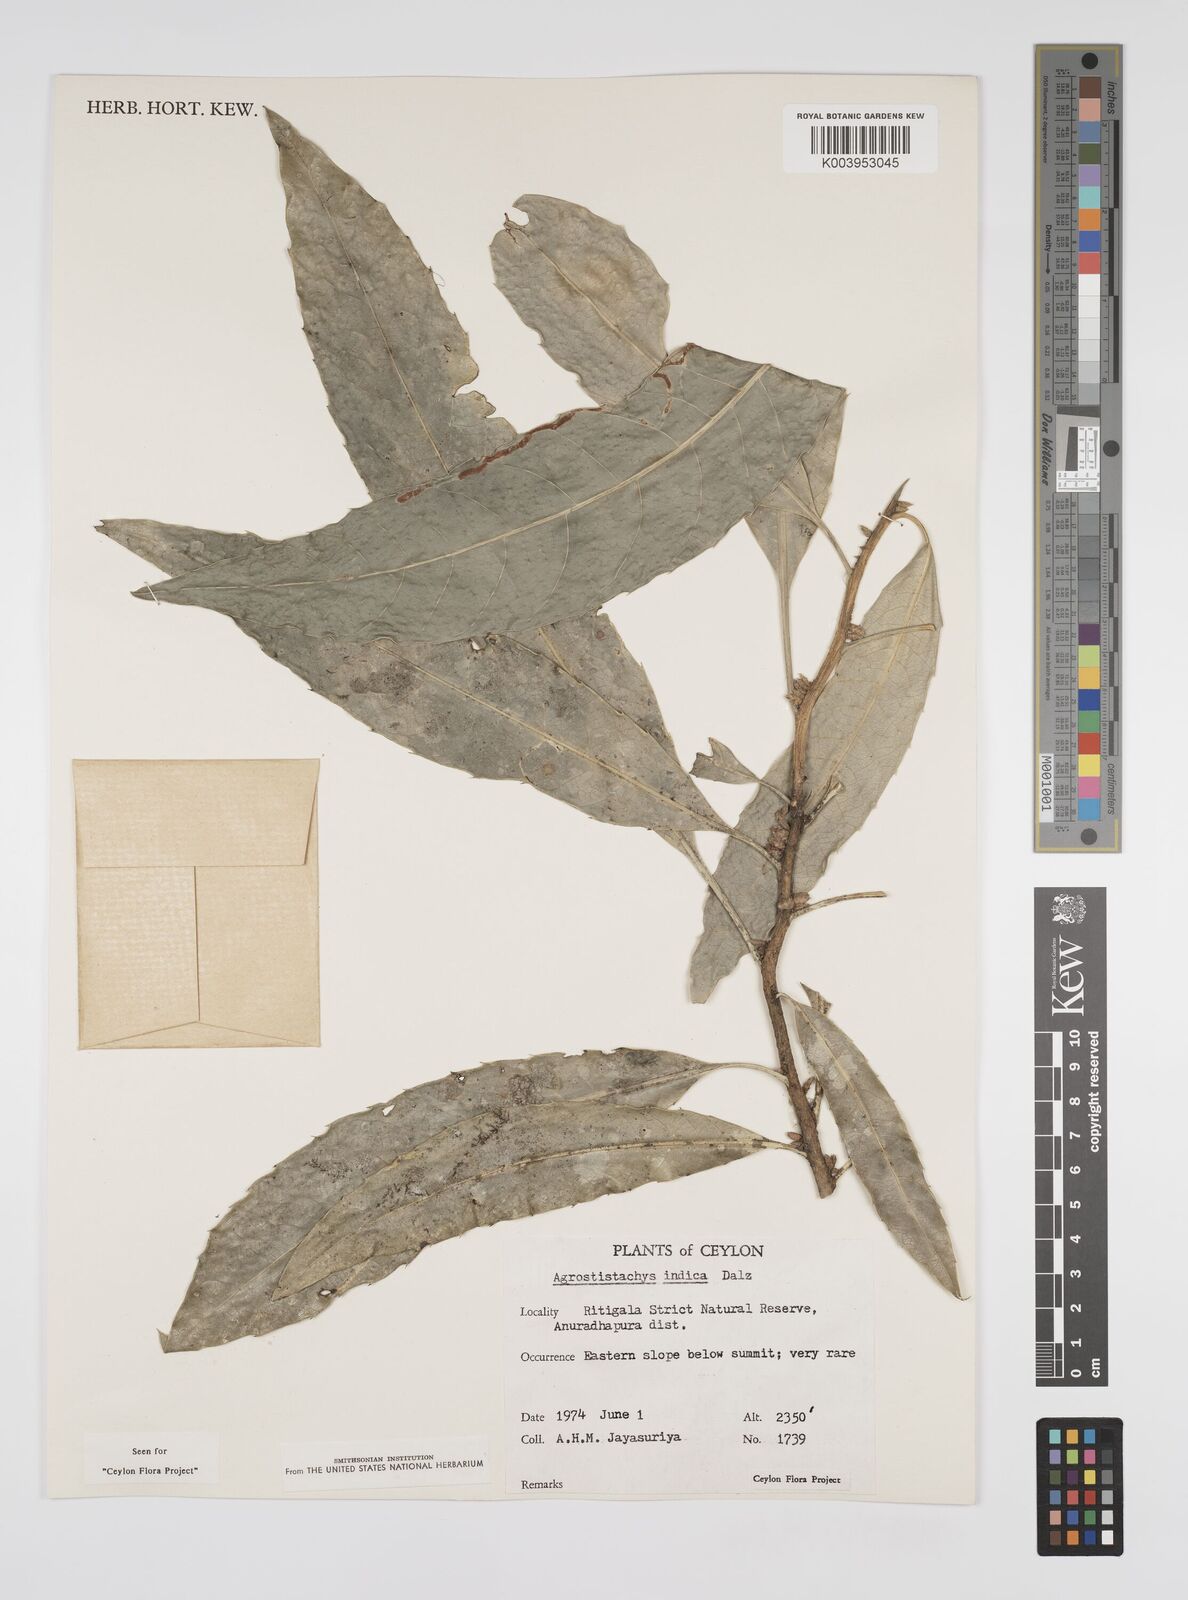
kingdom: Plantae
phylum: Tracheophyta
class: Magnoliopsida
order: Malpighiales
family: Euphorbiaceae
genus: Agrostistachys
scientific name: Agrostistachys indica
